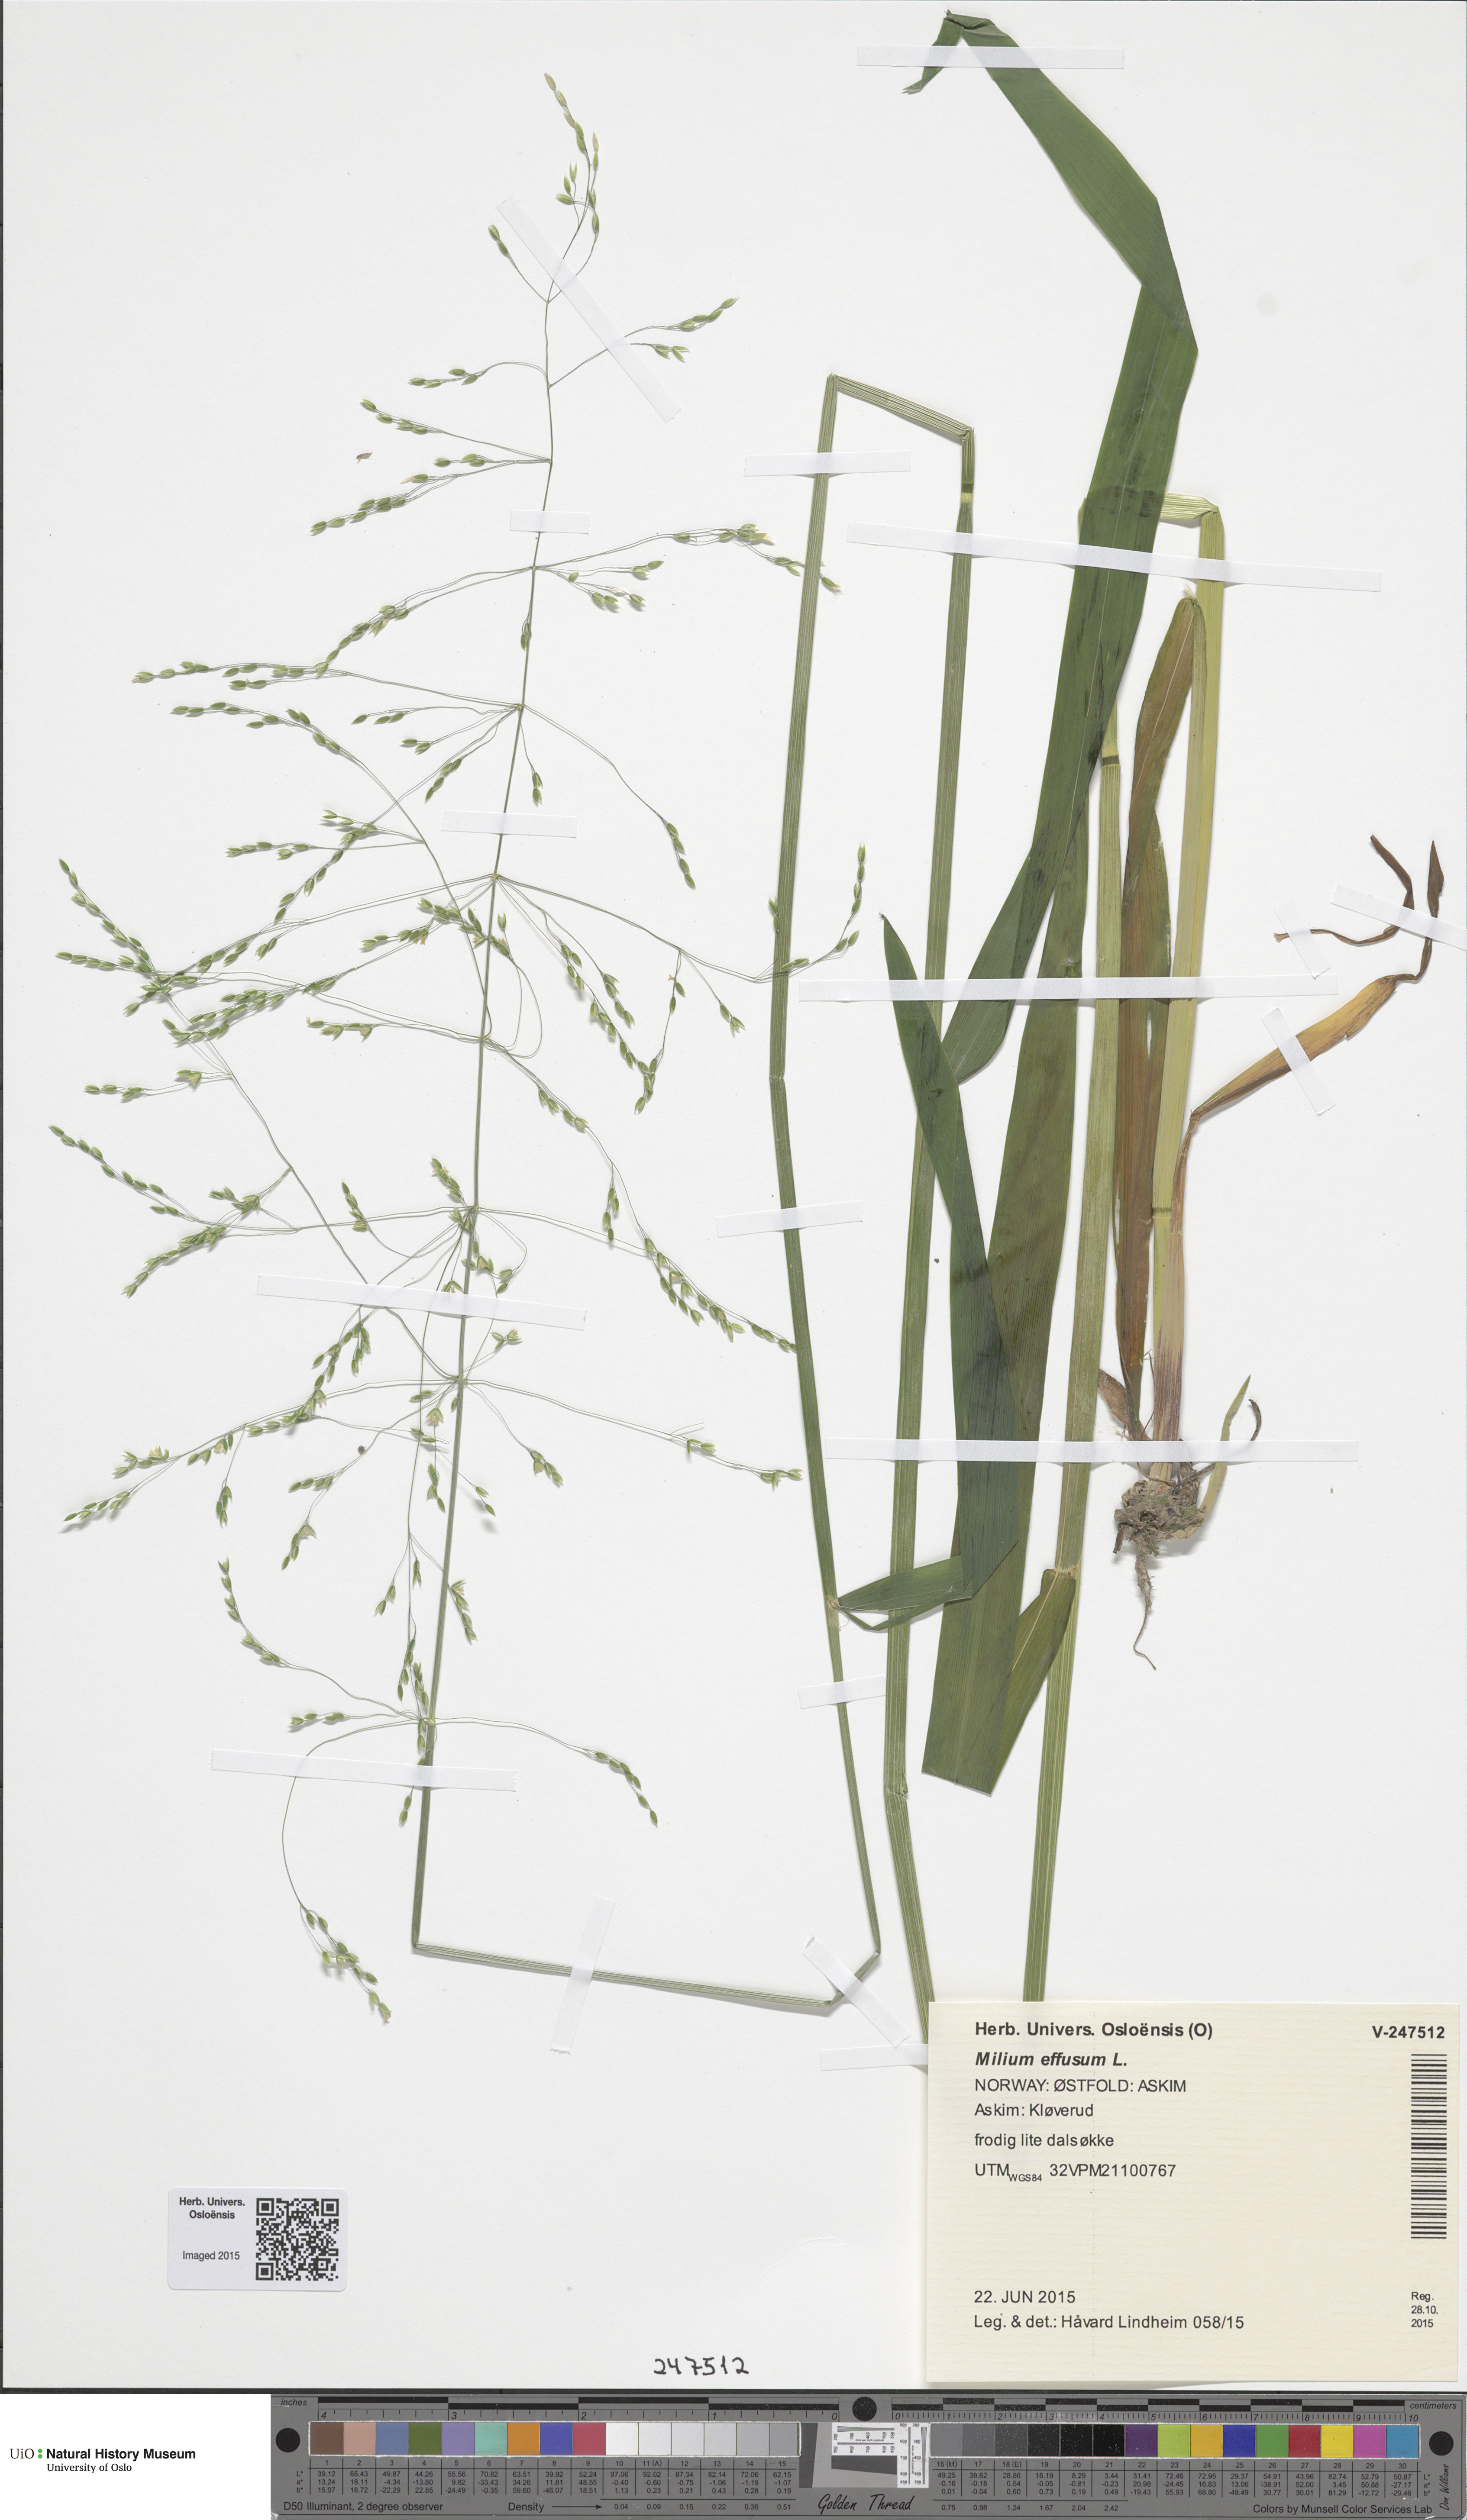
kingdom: Plantae
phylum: Tracheophyta
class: Liliopsida
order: Poales
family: Poaceae
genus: Milium
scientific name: Milium effusum
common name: Wood millet
